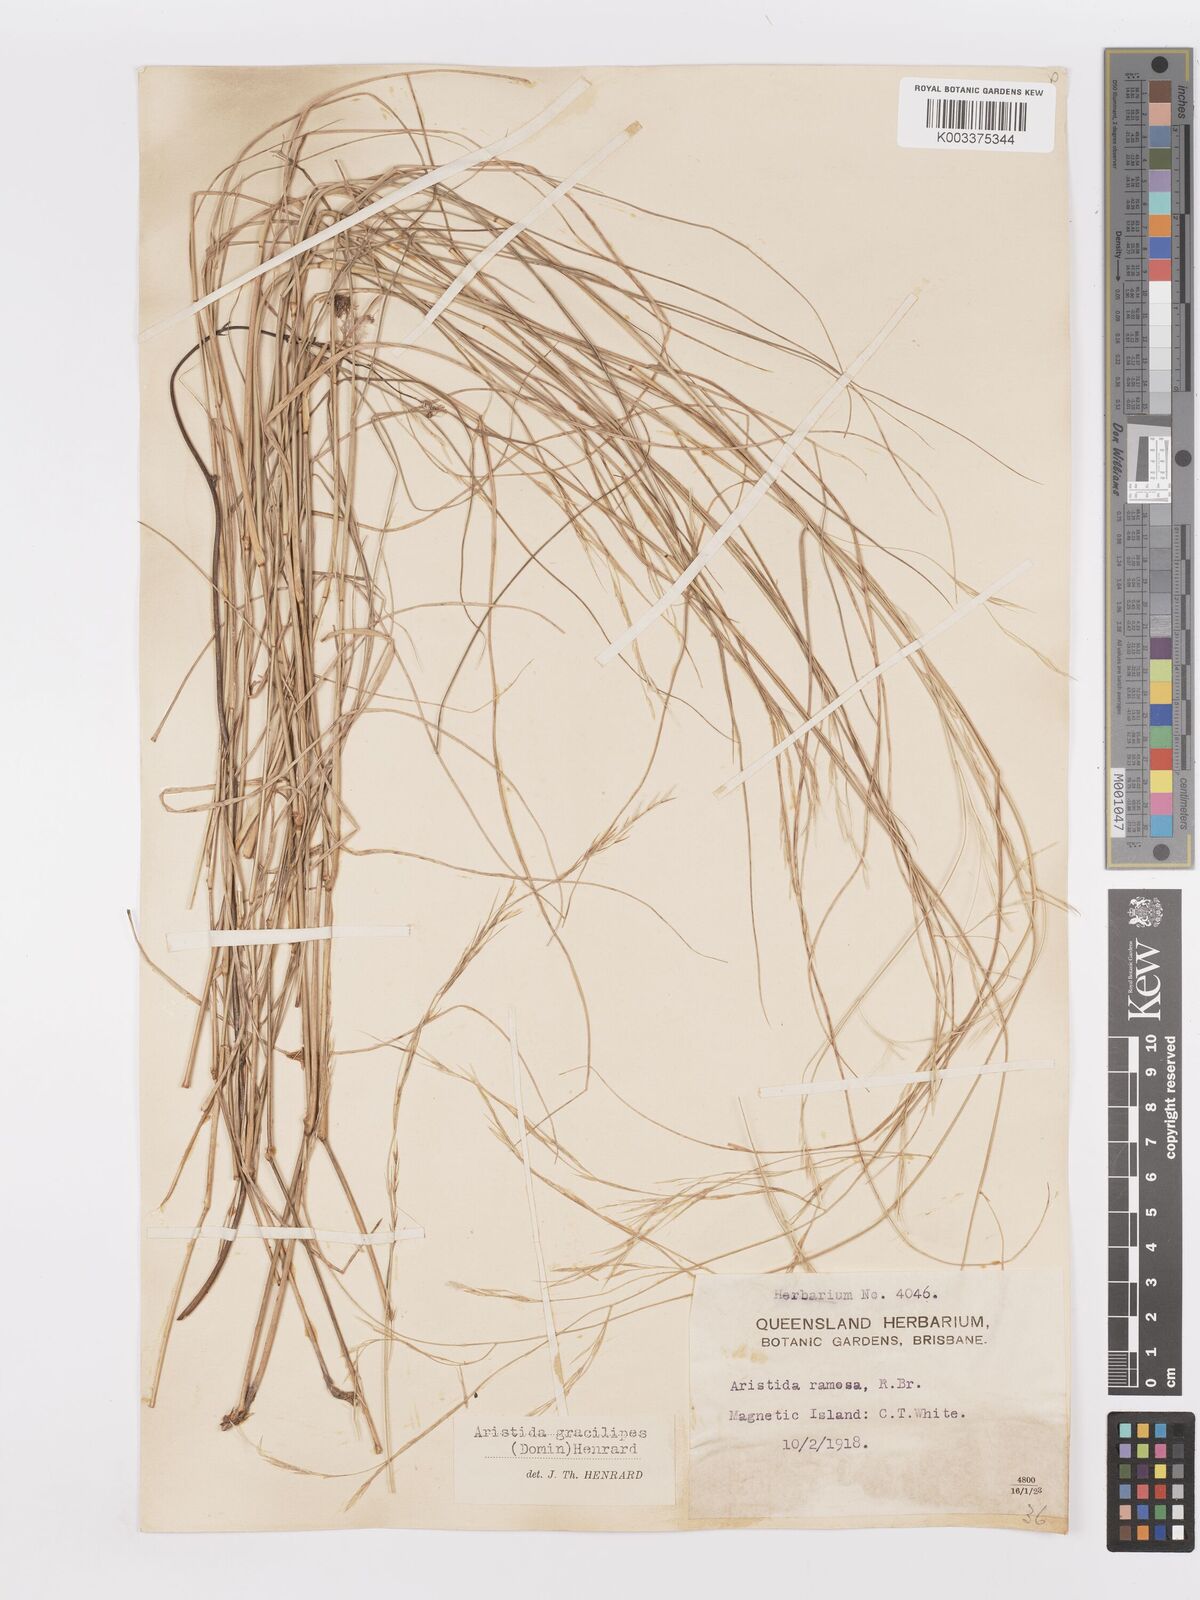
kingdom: Plantae
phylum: Tracheophyta
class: Liliopsida
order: Poales
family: Poaceae
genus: Aristida
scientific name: Aristida gracilipes
